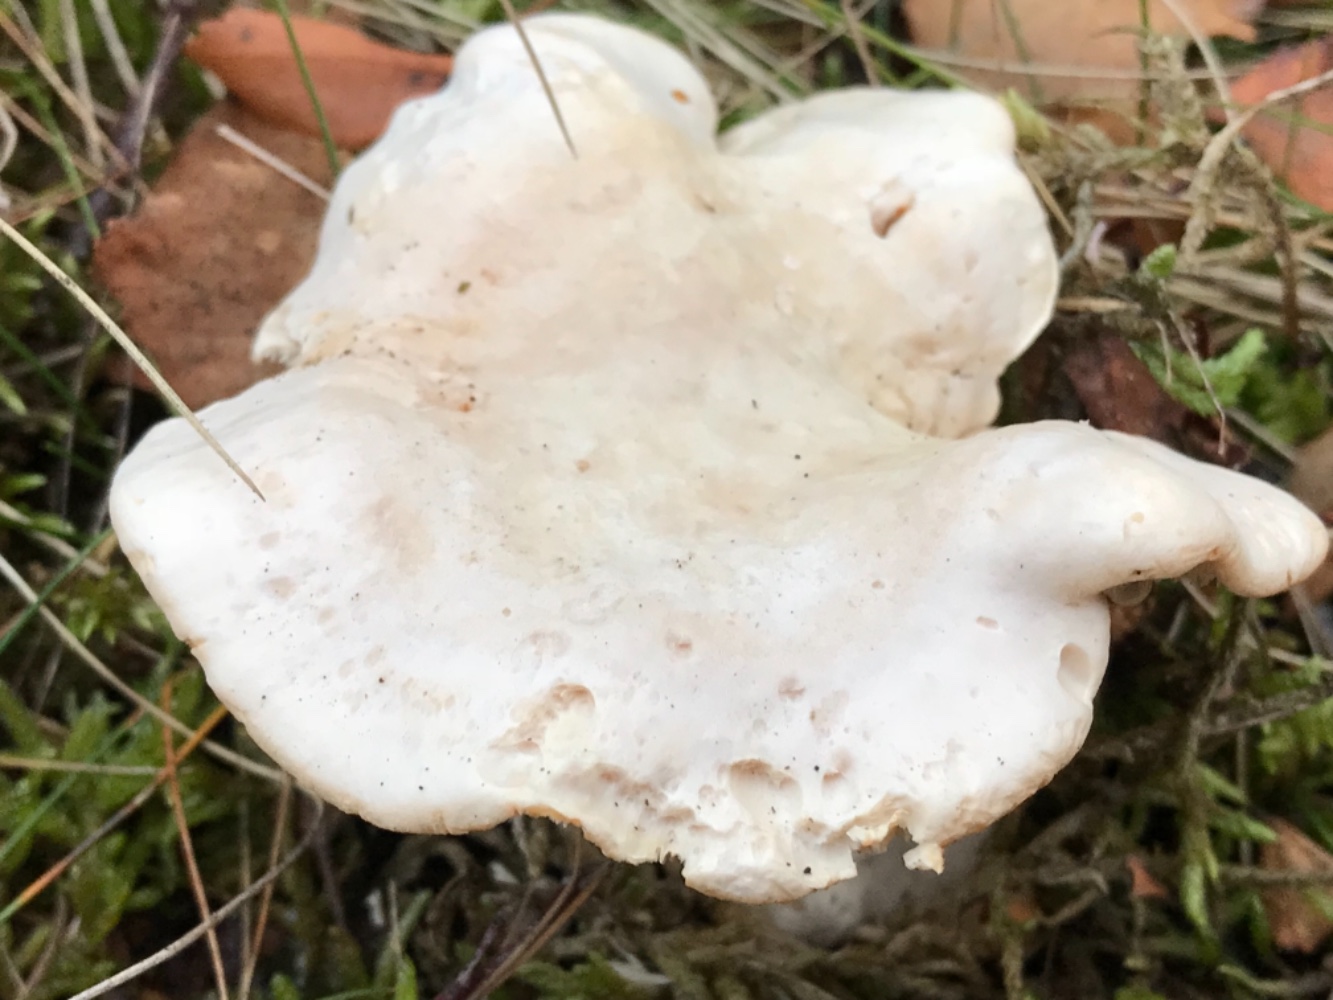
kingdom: Fungi
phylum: Basidiomycota
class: Agaricomycetes
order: Cantharellales
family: Hydnaceae
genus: Hydnum
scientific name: Hydnum repandum
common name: almindelig pigsvamp
